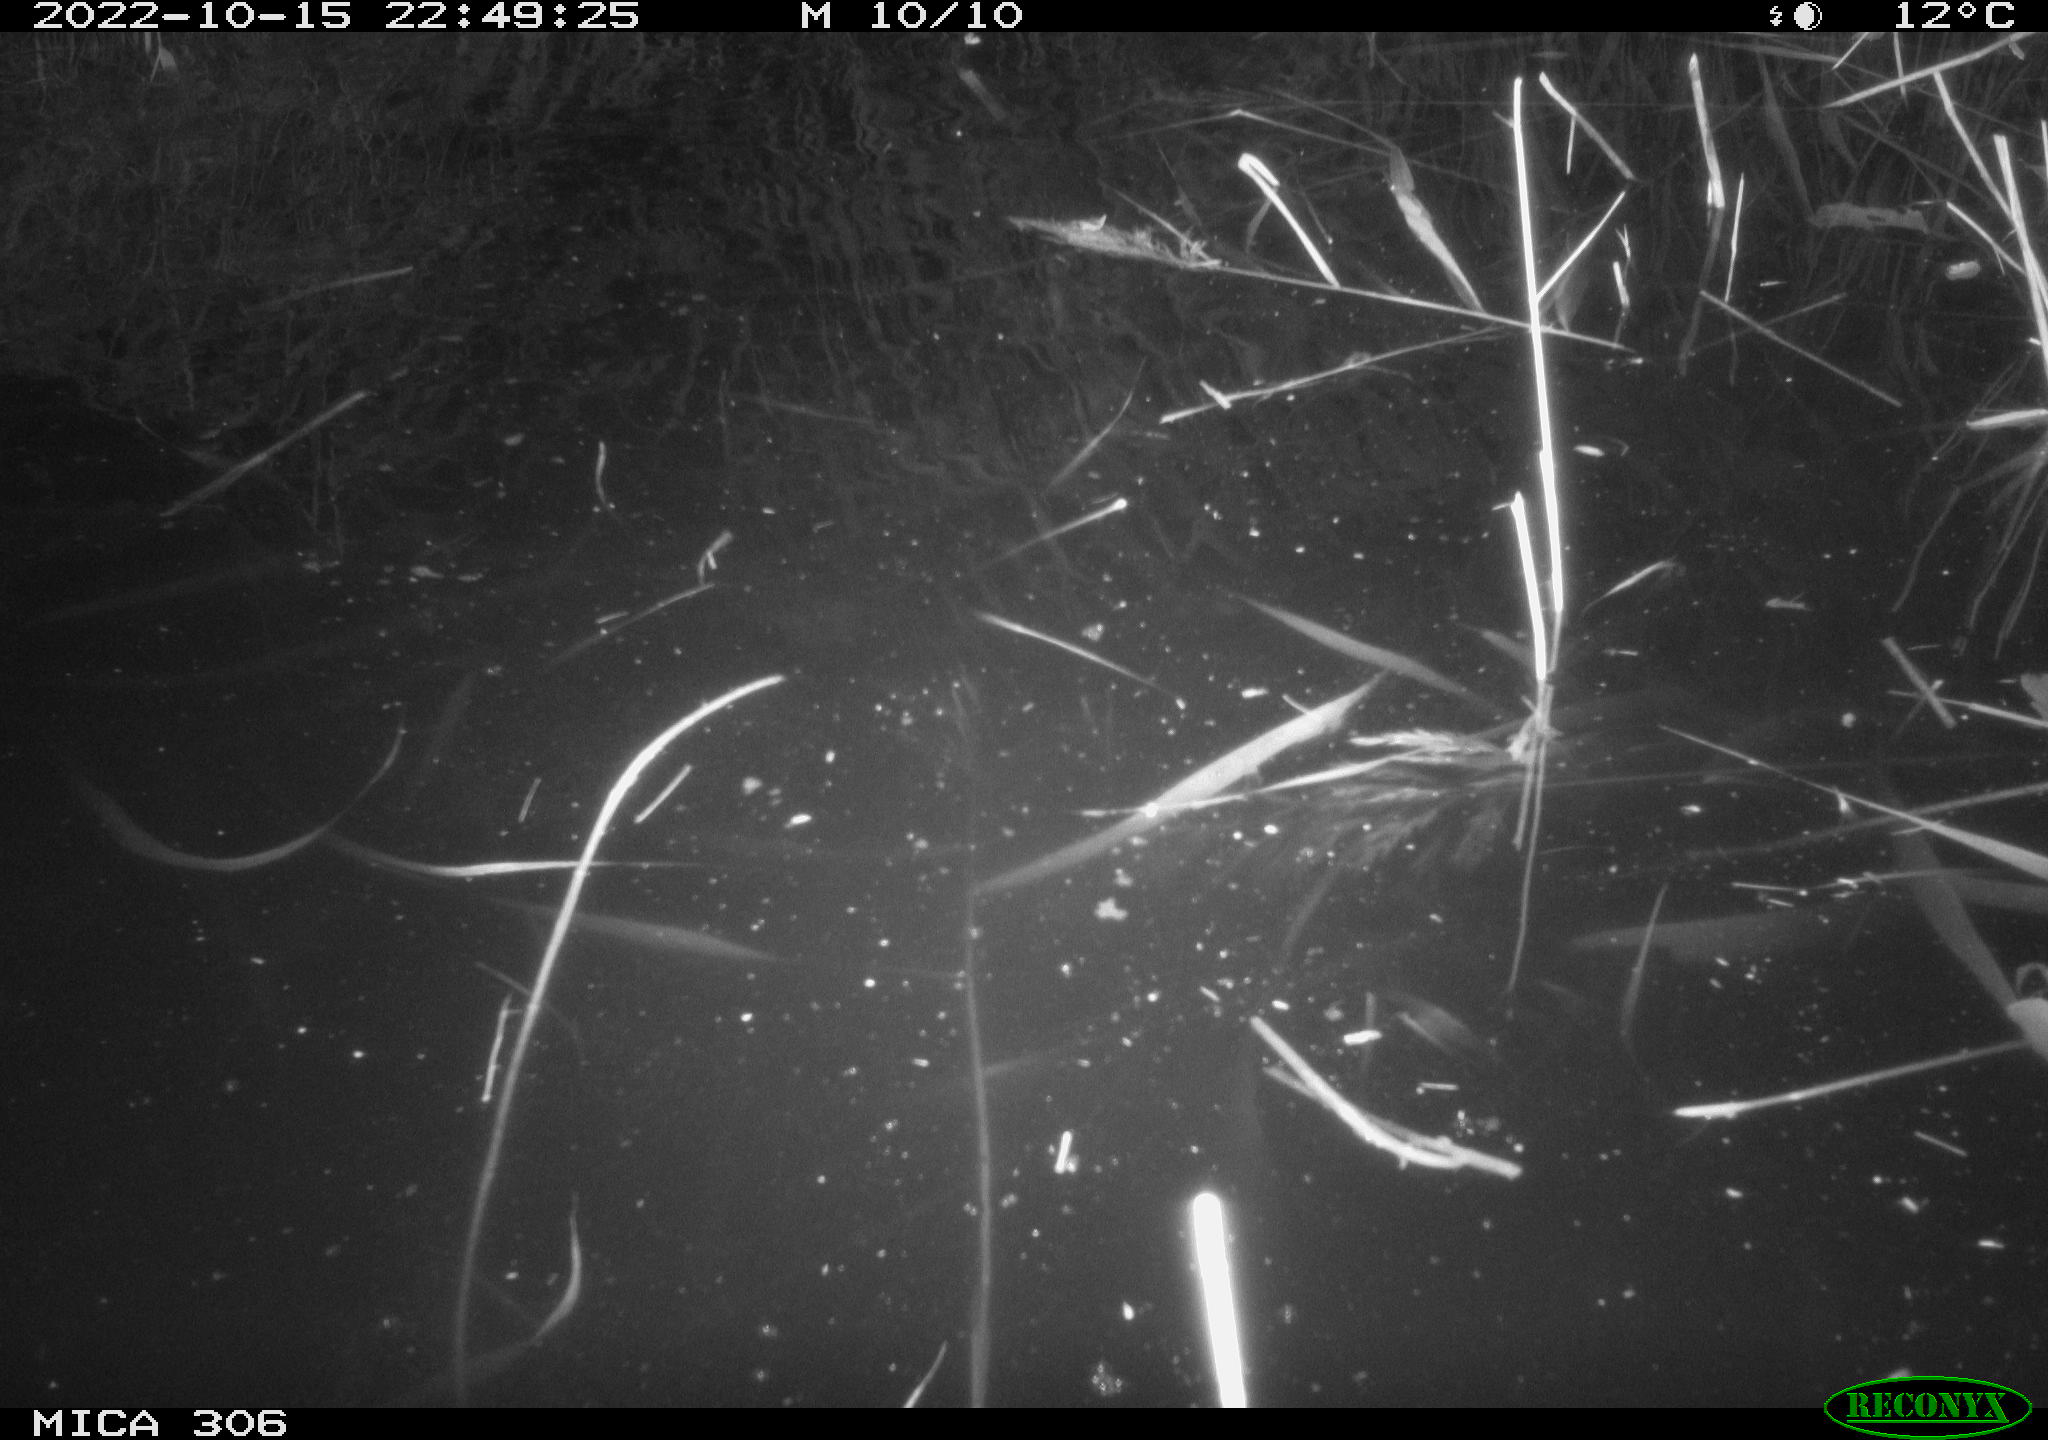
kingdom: Animalia
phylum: Chordata
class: Mammalia
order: Rodentia
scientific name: Rodentia
